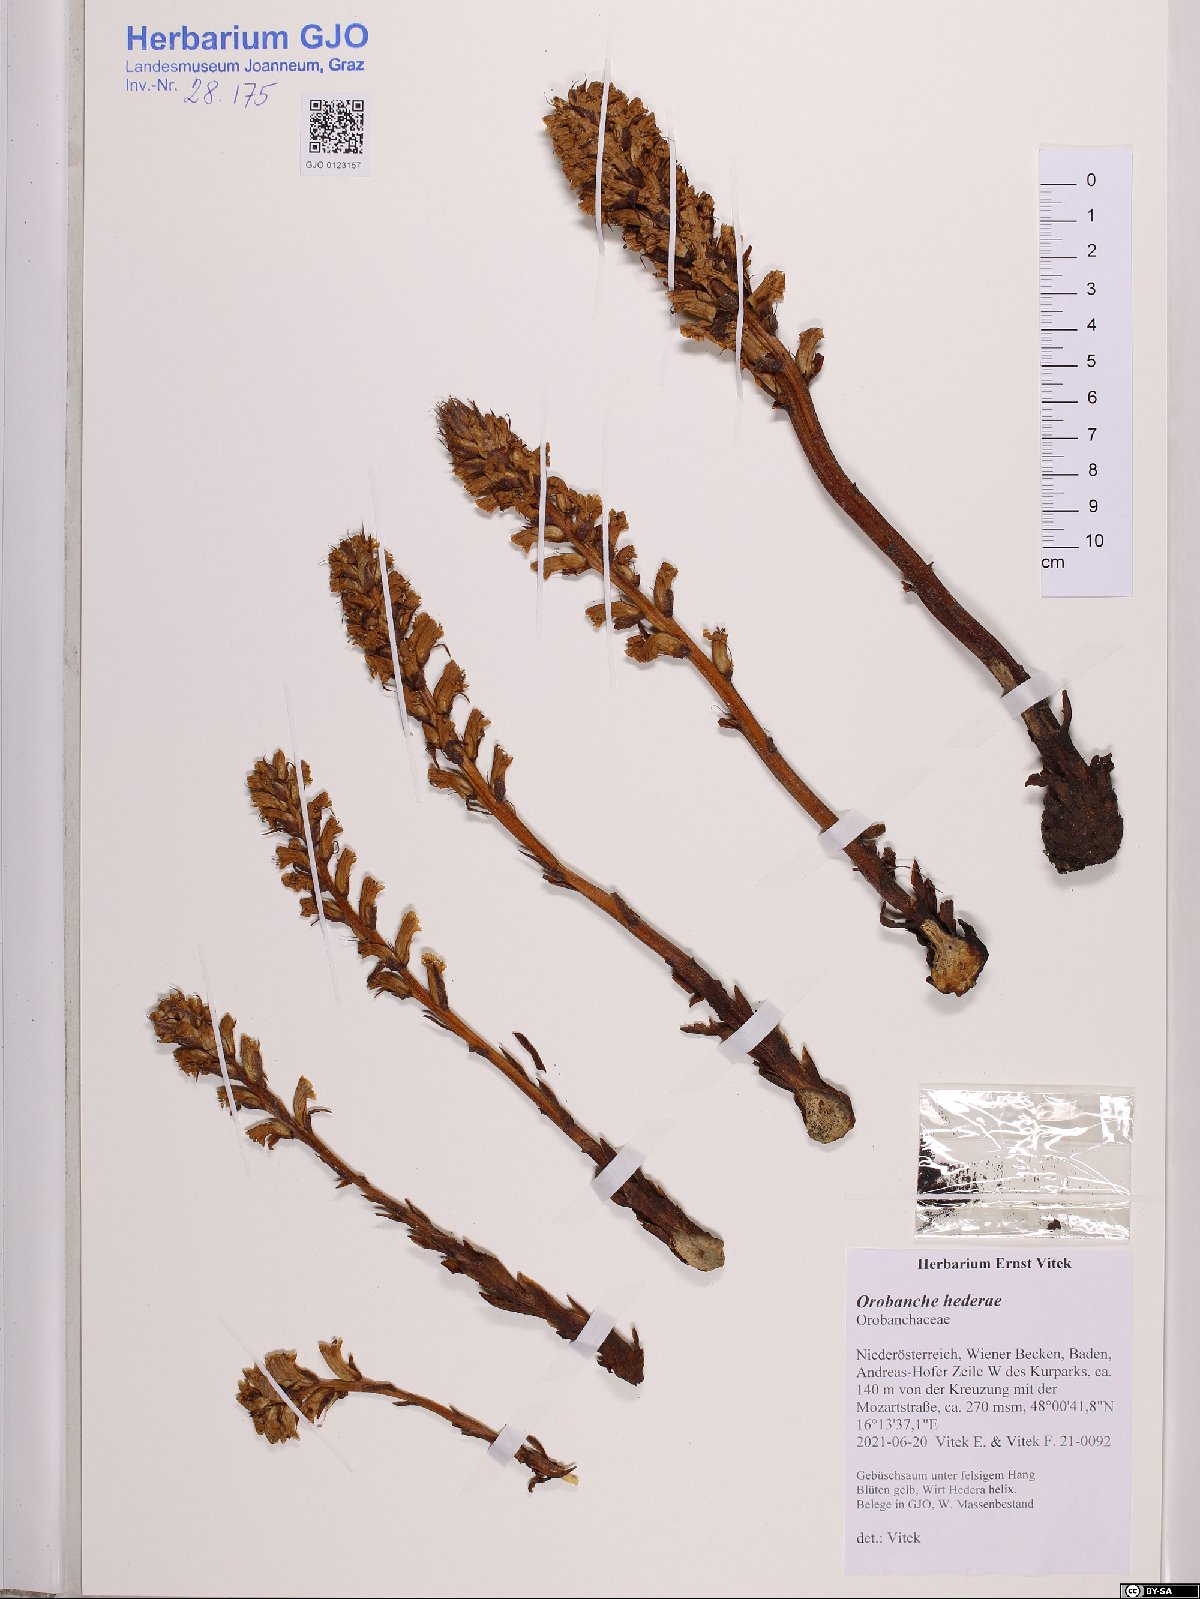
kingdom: Plantae
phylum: Tracheophyta
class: Magnoliopsida
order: Lamiales
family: Orobanchaceae
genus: Orobanche
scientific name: Orobanche hederae
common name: Ivy broomrape
